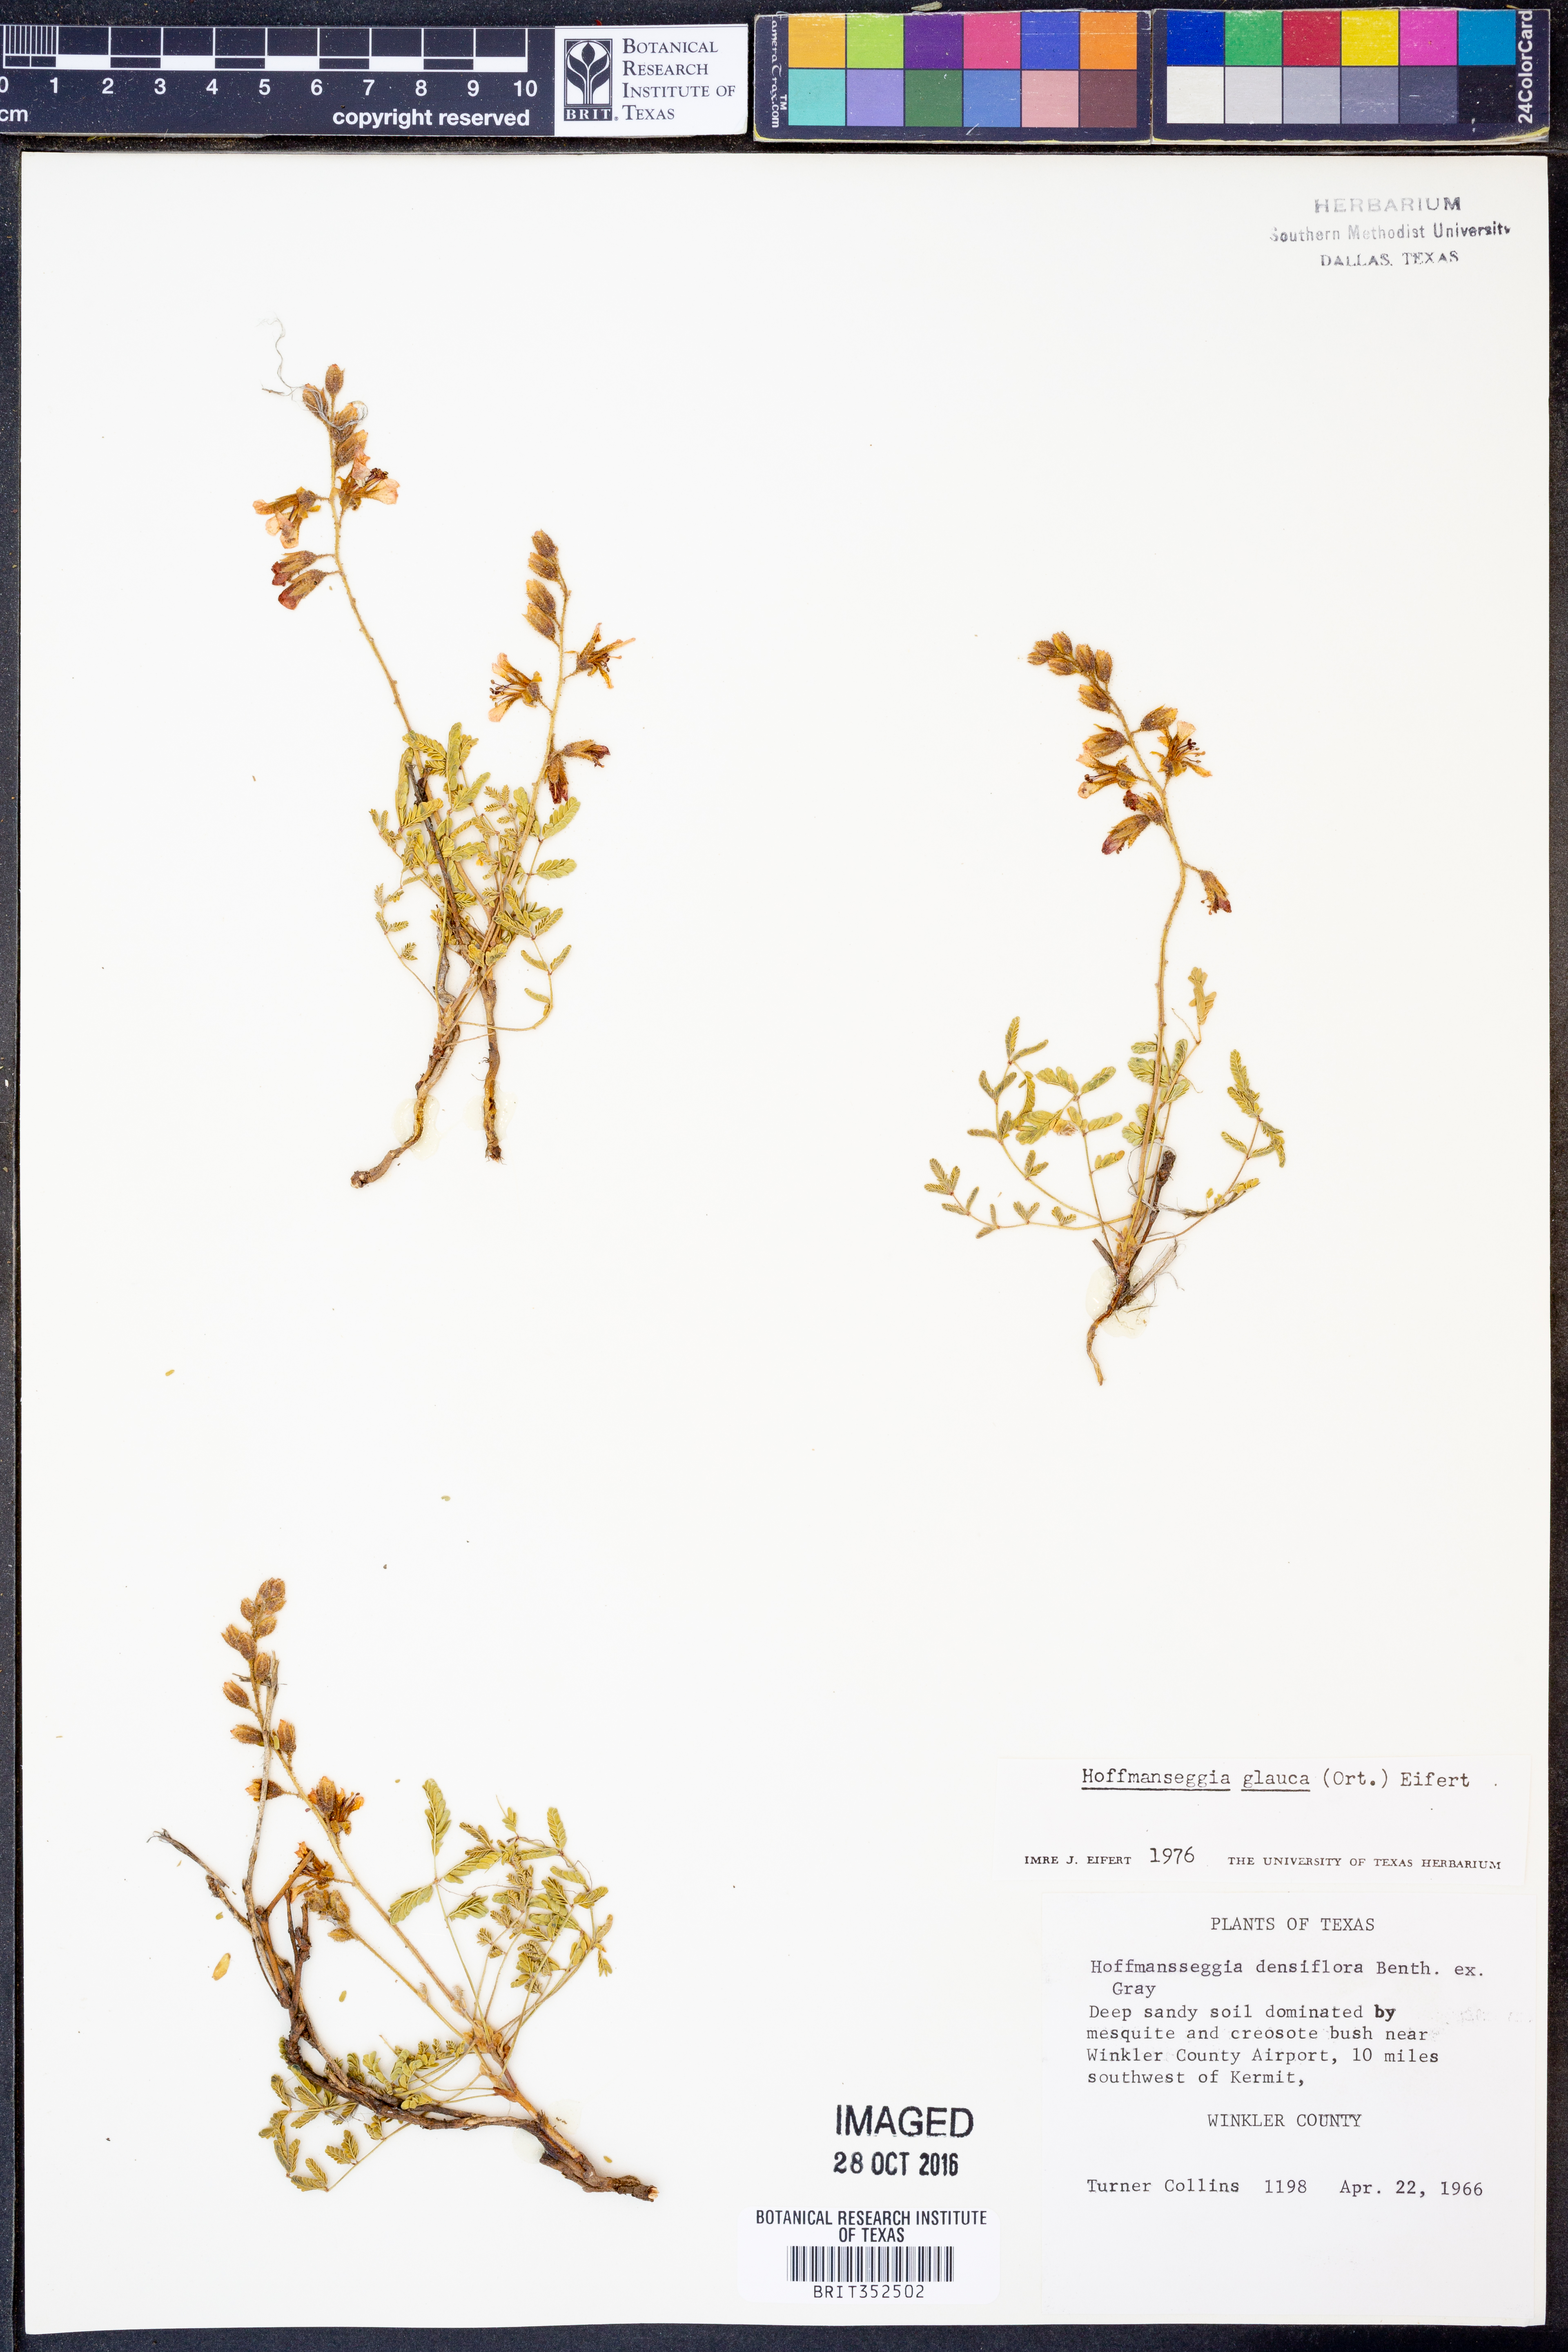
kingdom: Plantae
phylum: Tracheophyta
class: Magnoliopsida
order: Fabales
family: Fabaceae
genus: Hoffmannseggia
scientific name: Hoffmannseggia glauca
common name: Pignut
